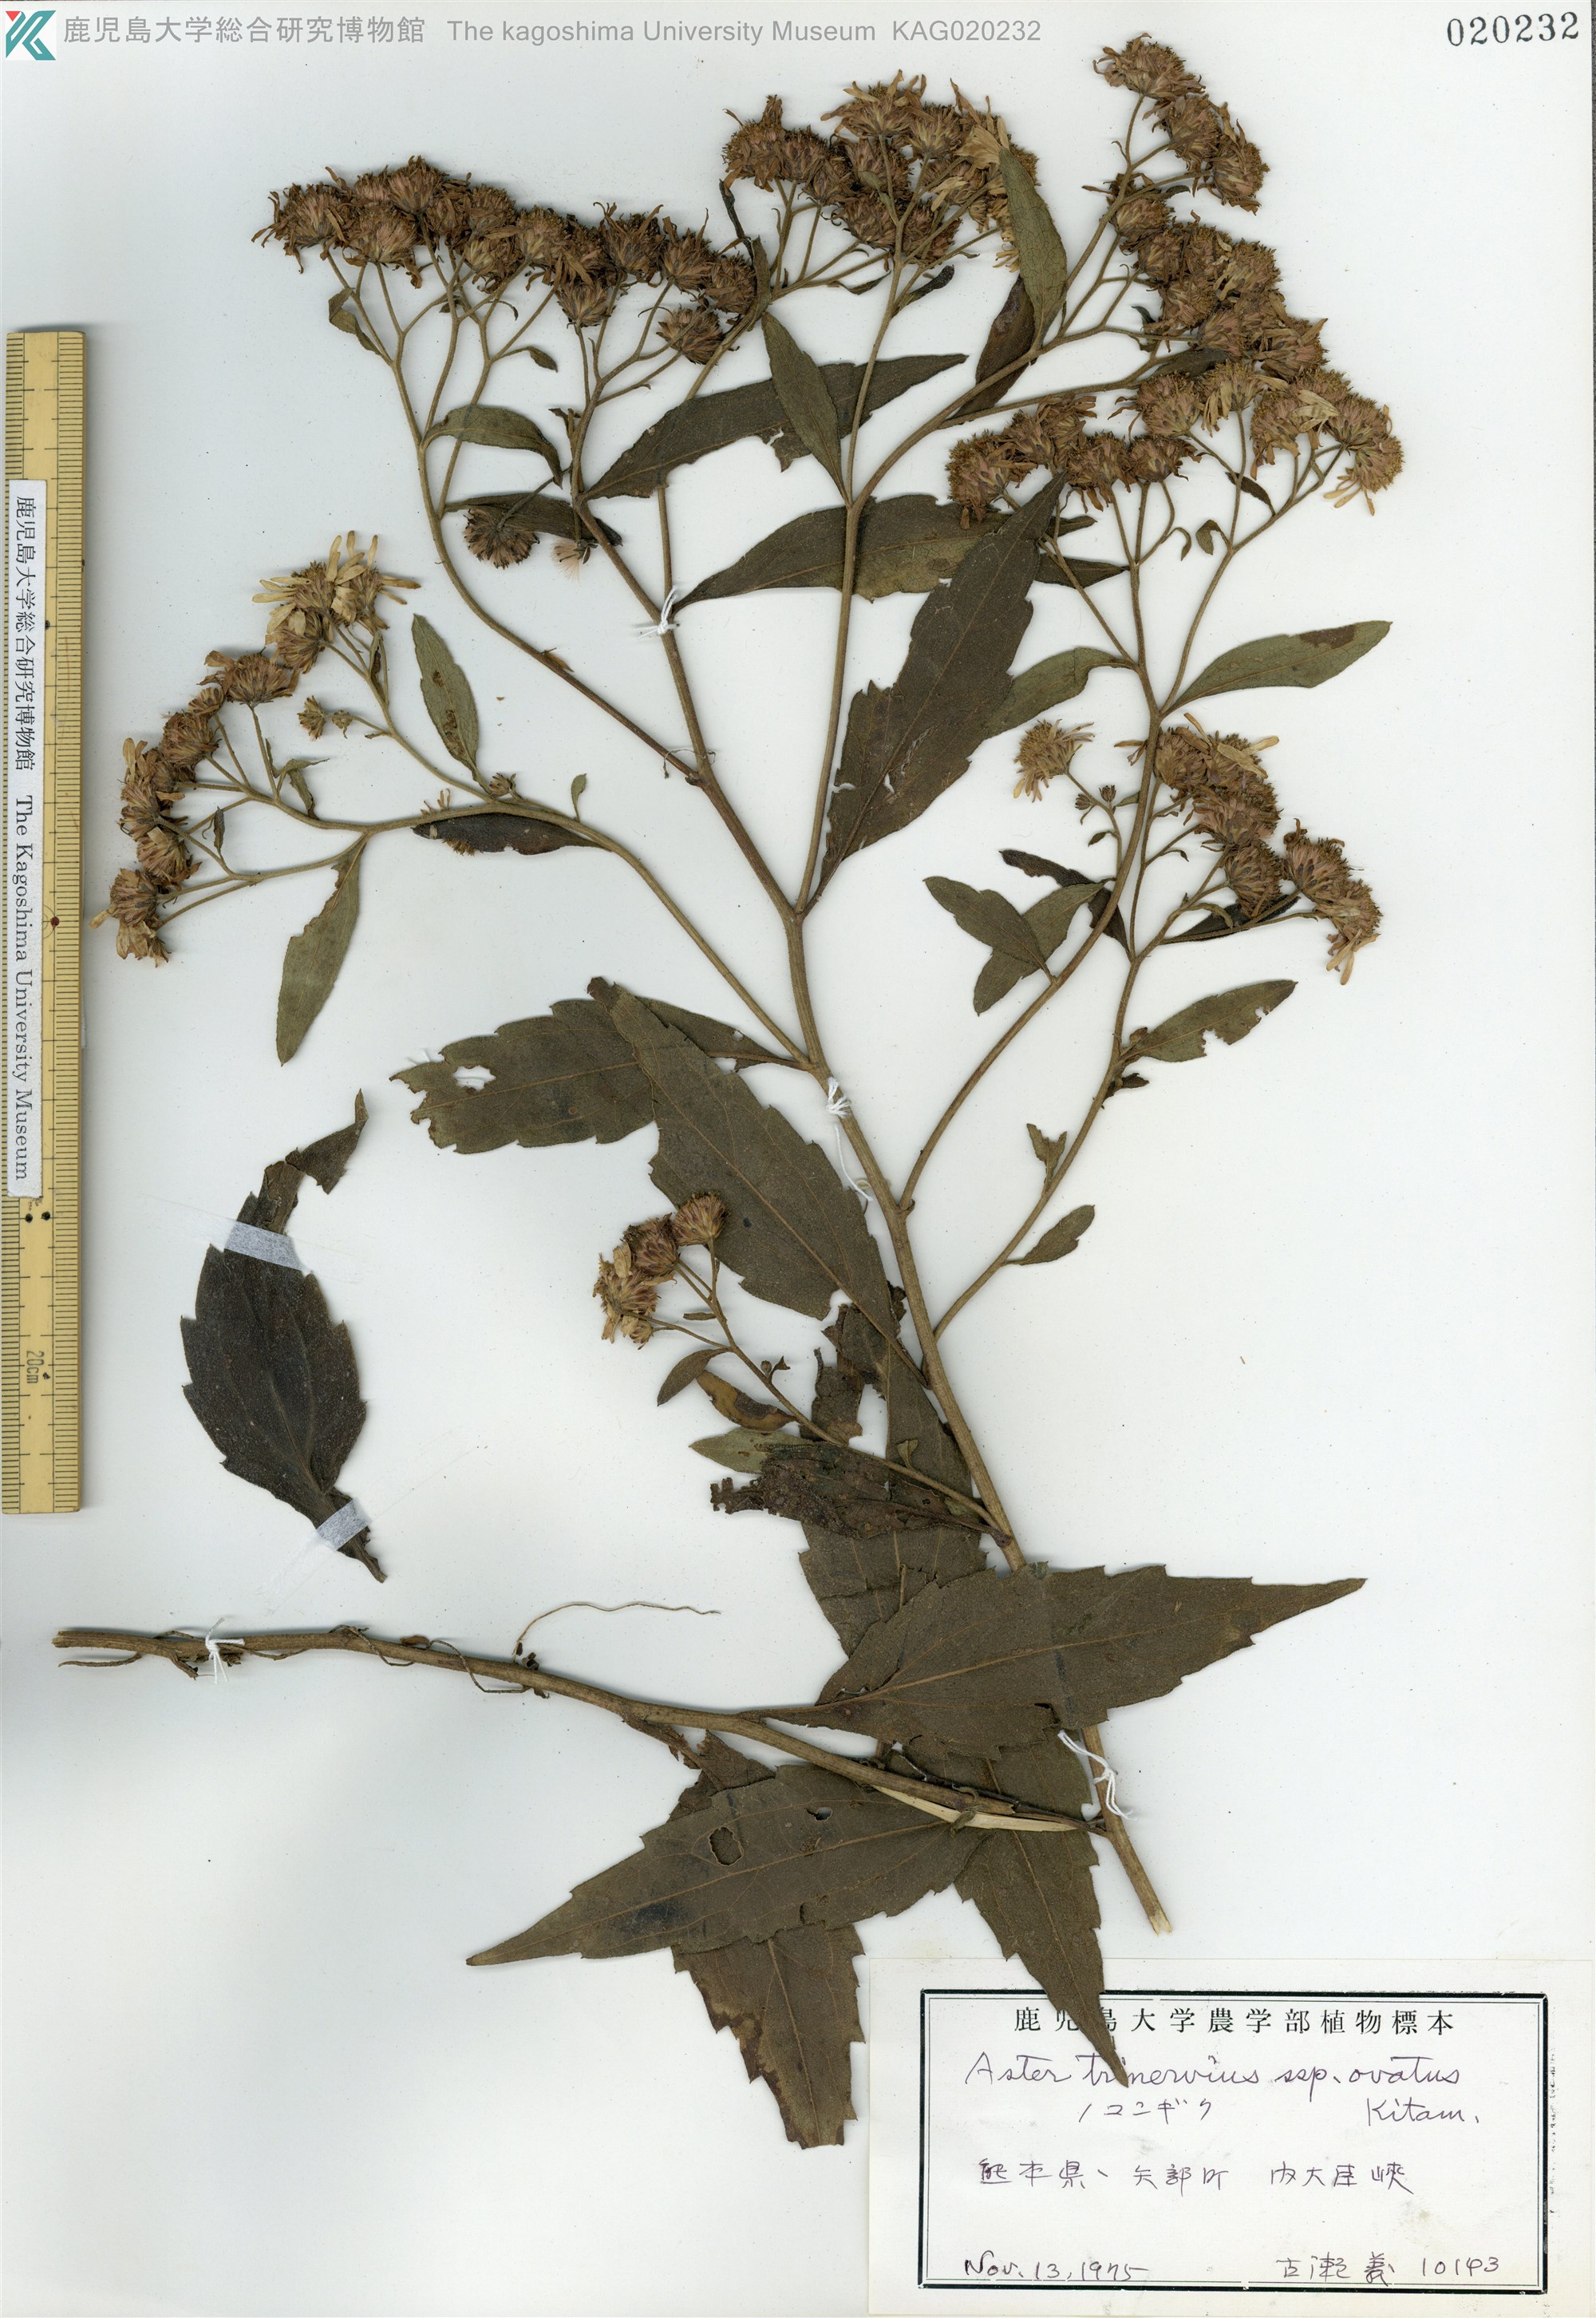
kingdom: Plantae
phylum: Tracheophyta
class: Magnoliopsida
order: Asterales
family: Asteraceae
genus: Aster
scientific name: Aster microcephalus
